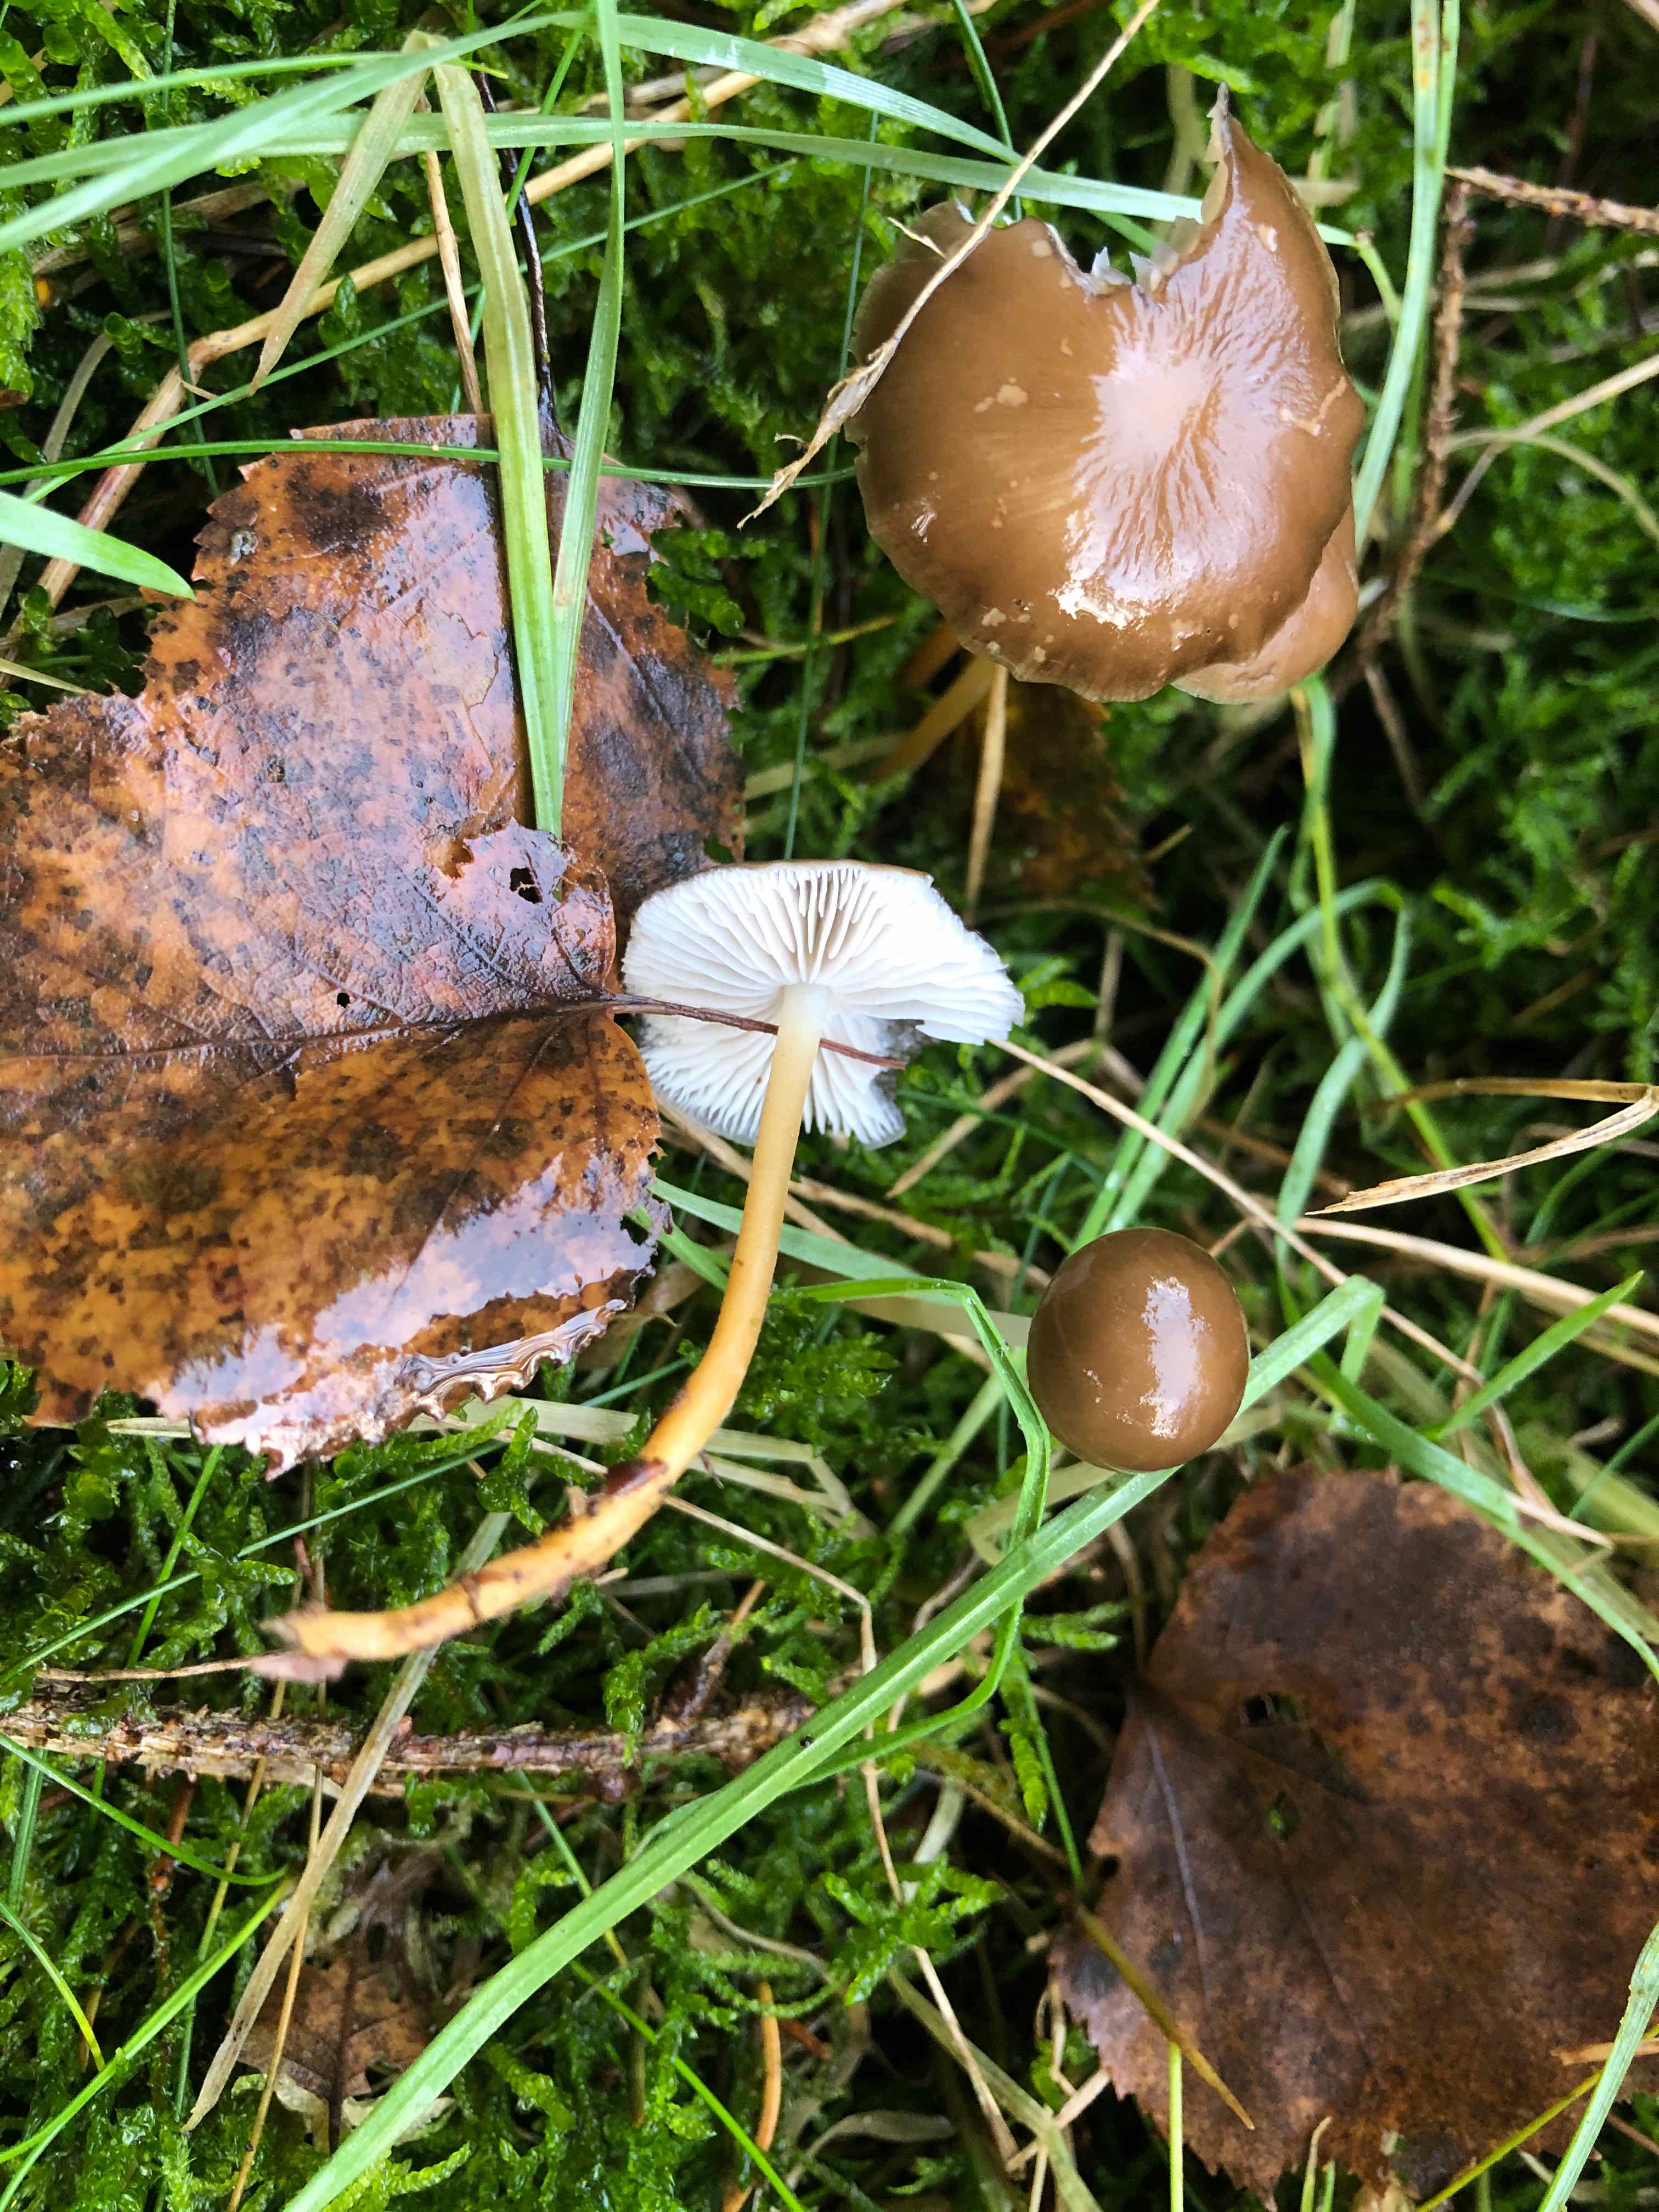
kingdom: Fungi
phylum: Basidiomycota
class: Agaricomycetes
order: Agaricales
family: Physalacriaceae
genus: Strobilurus
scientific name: Strobilurus esculentus
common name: gran-koglehat
